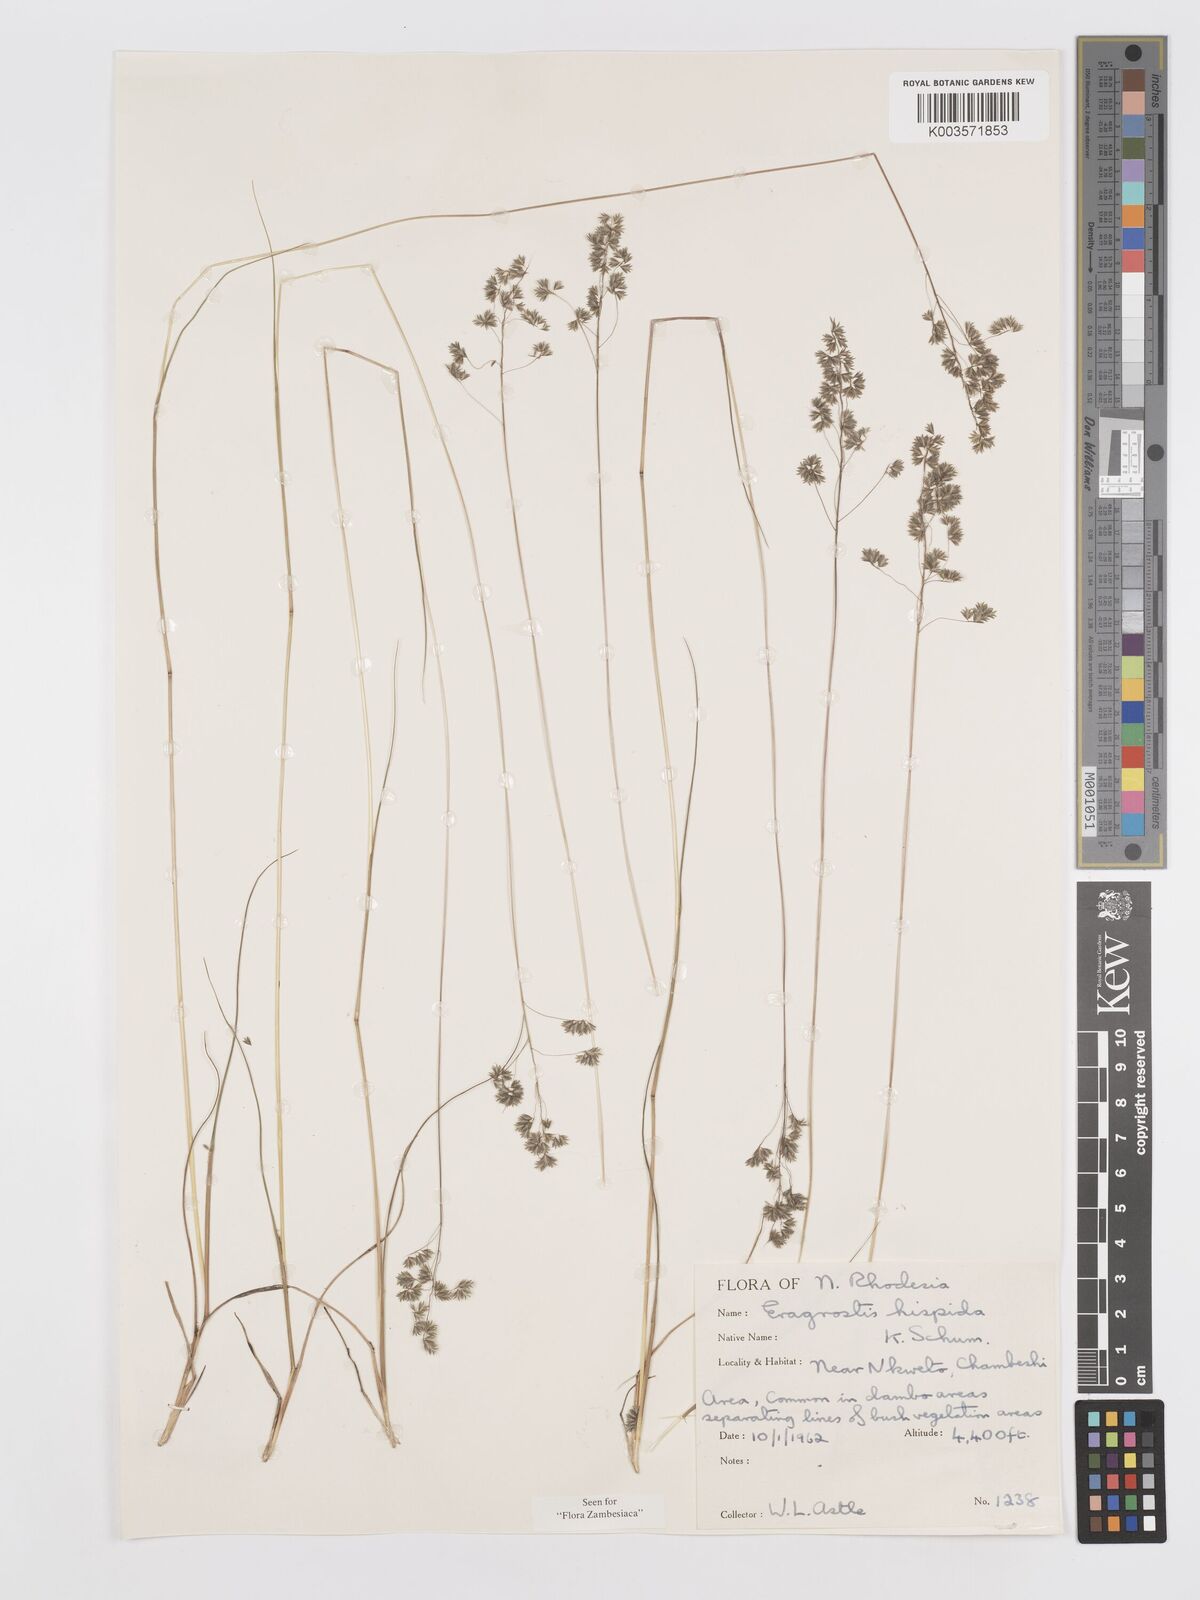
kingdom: Plantae
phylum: Tracheophyta
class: Liliopsida
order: Poales
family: Poaceae
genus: Eragrostis
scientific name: Eragrostis hispida
